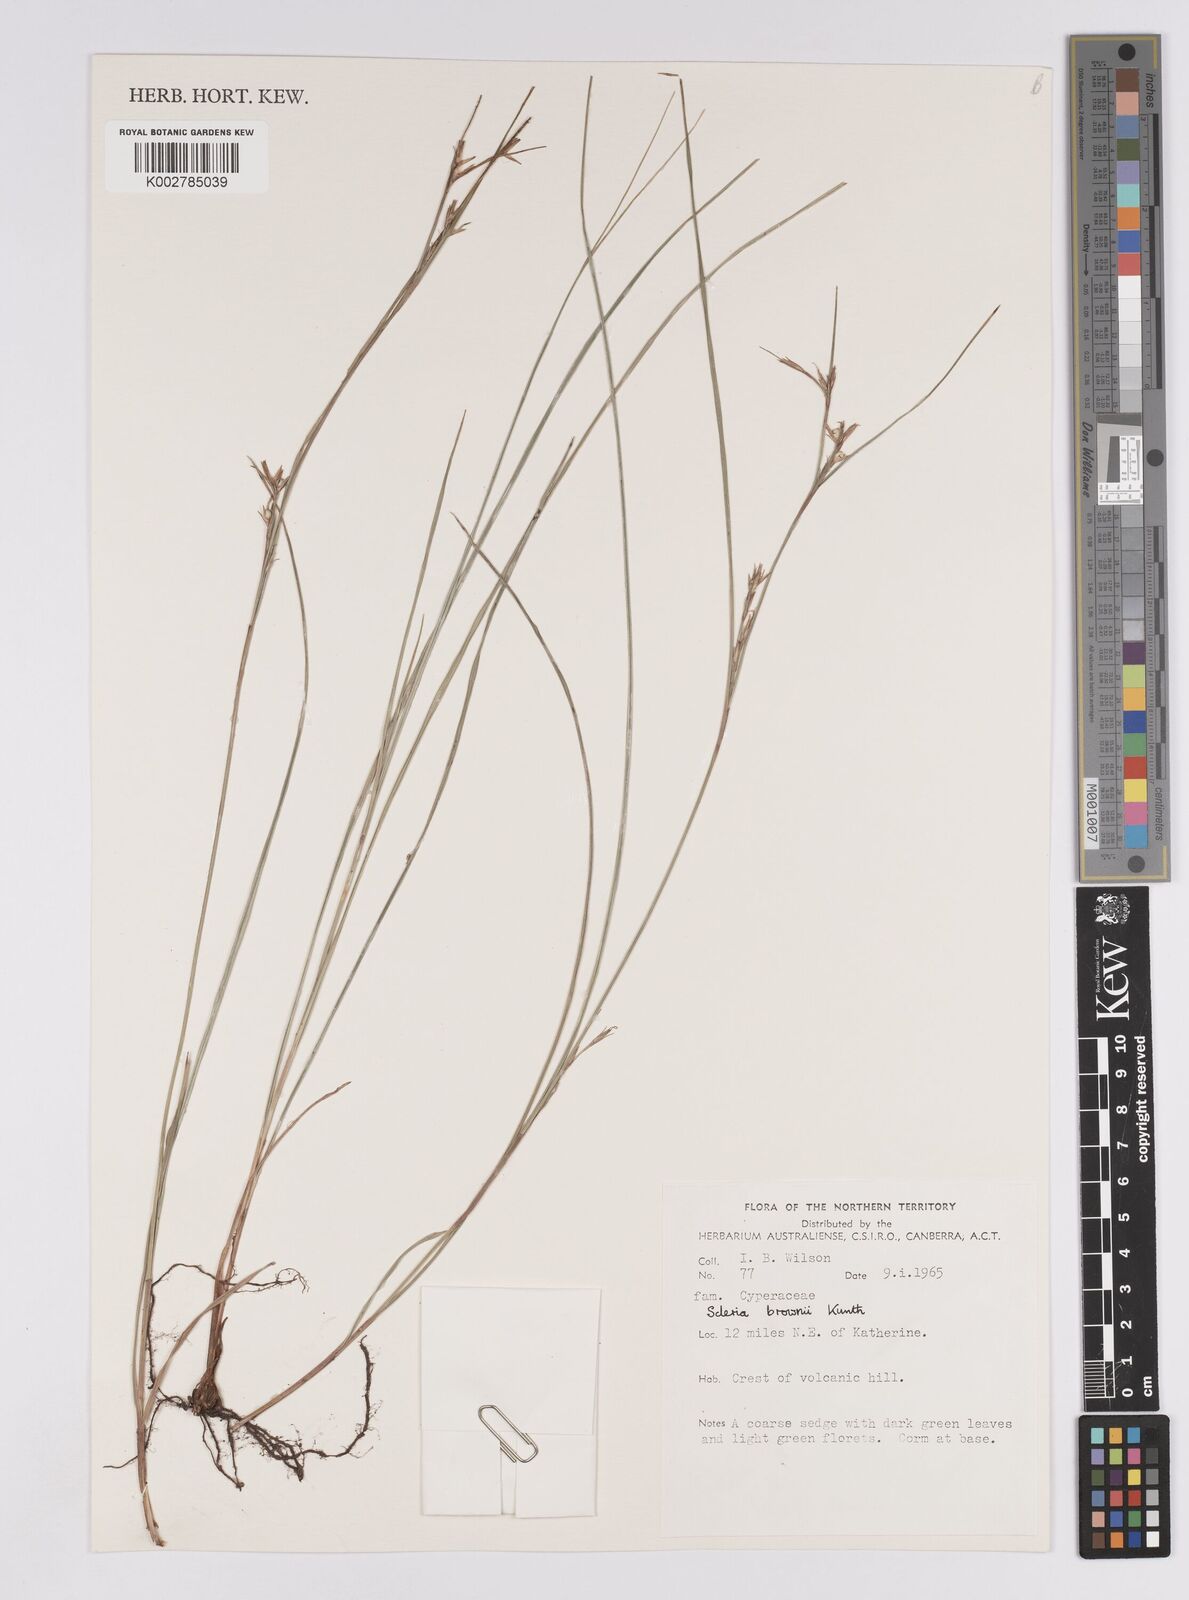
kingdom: Plantae
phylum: Tracheophyta
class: Liliopsida
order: Poales
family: Cyperaceae
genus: Scleria
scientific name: Scleria brownii
